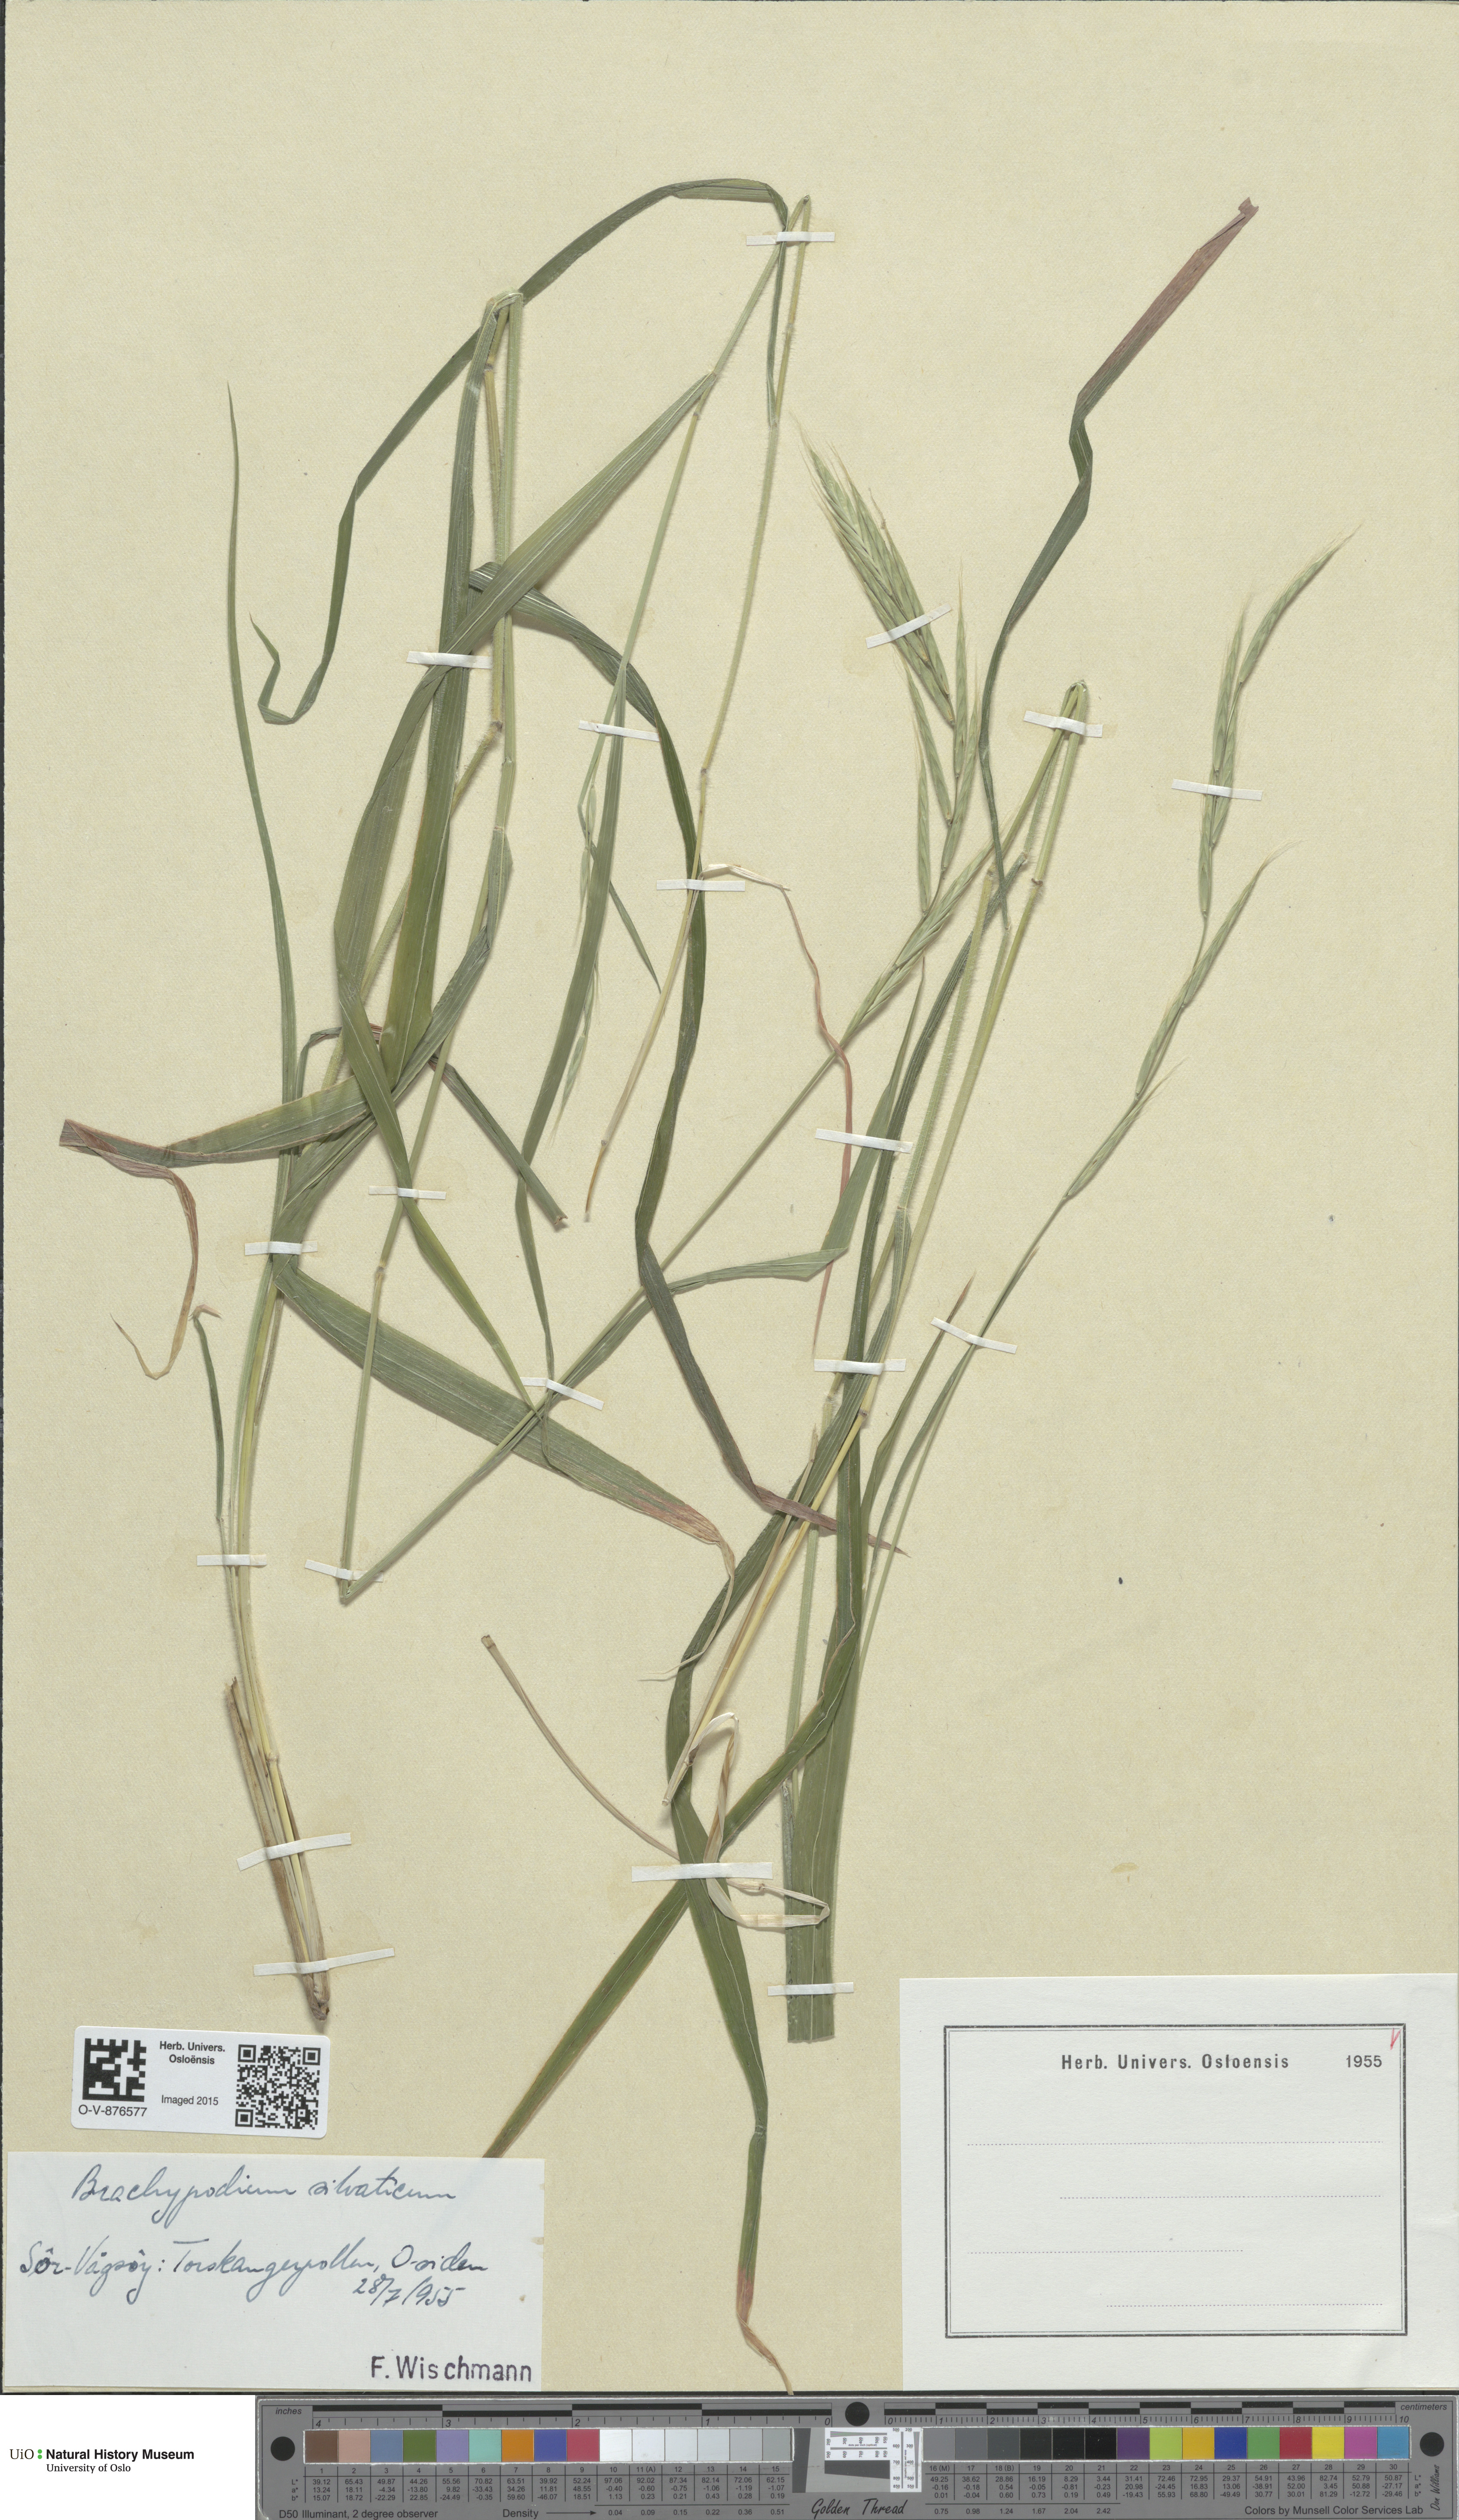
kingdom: Plantae
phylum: Tracheophyta
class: Liliopsida
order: Poales
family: Poaceae
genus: Brachypodium
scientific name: Brachypodium sylvaticum
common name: False-brome
